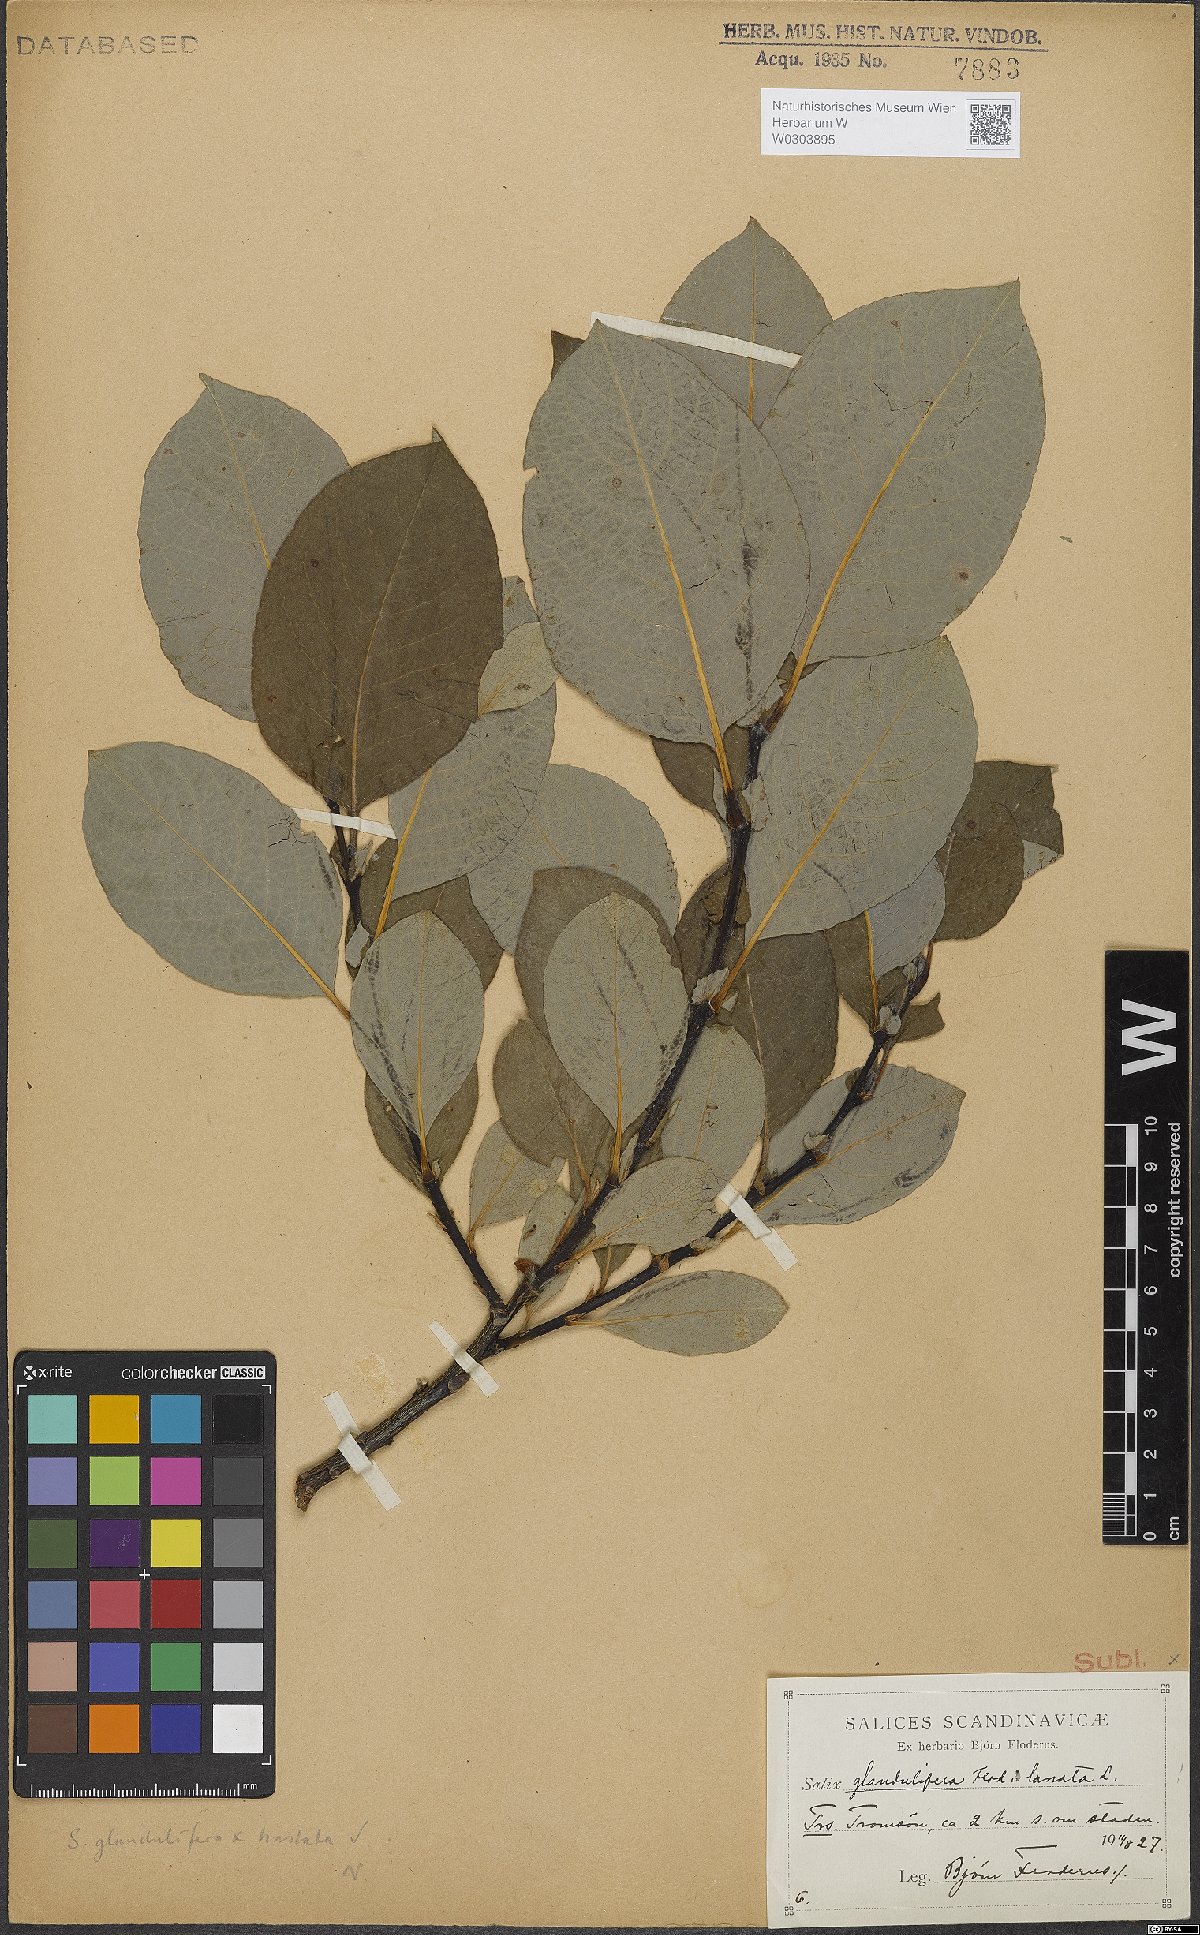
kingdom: Plantae
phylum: Tracheophyta
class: Magnoliopsida
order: Malpighiales
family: Salicaceae
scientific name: Salicaceae
